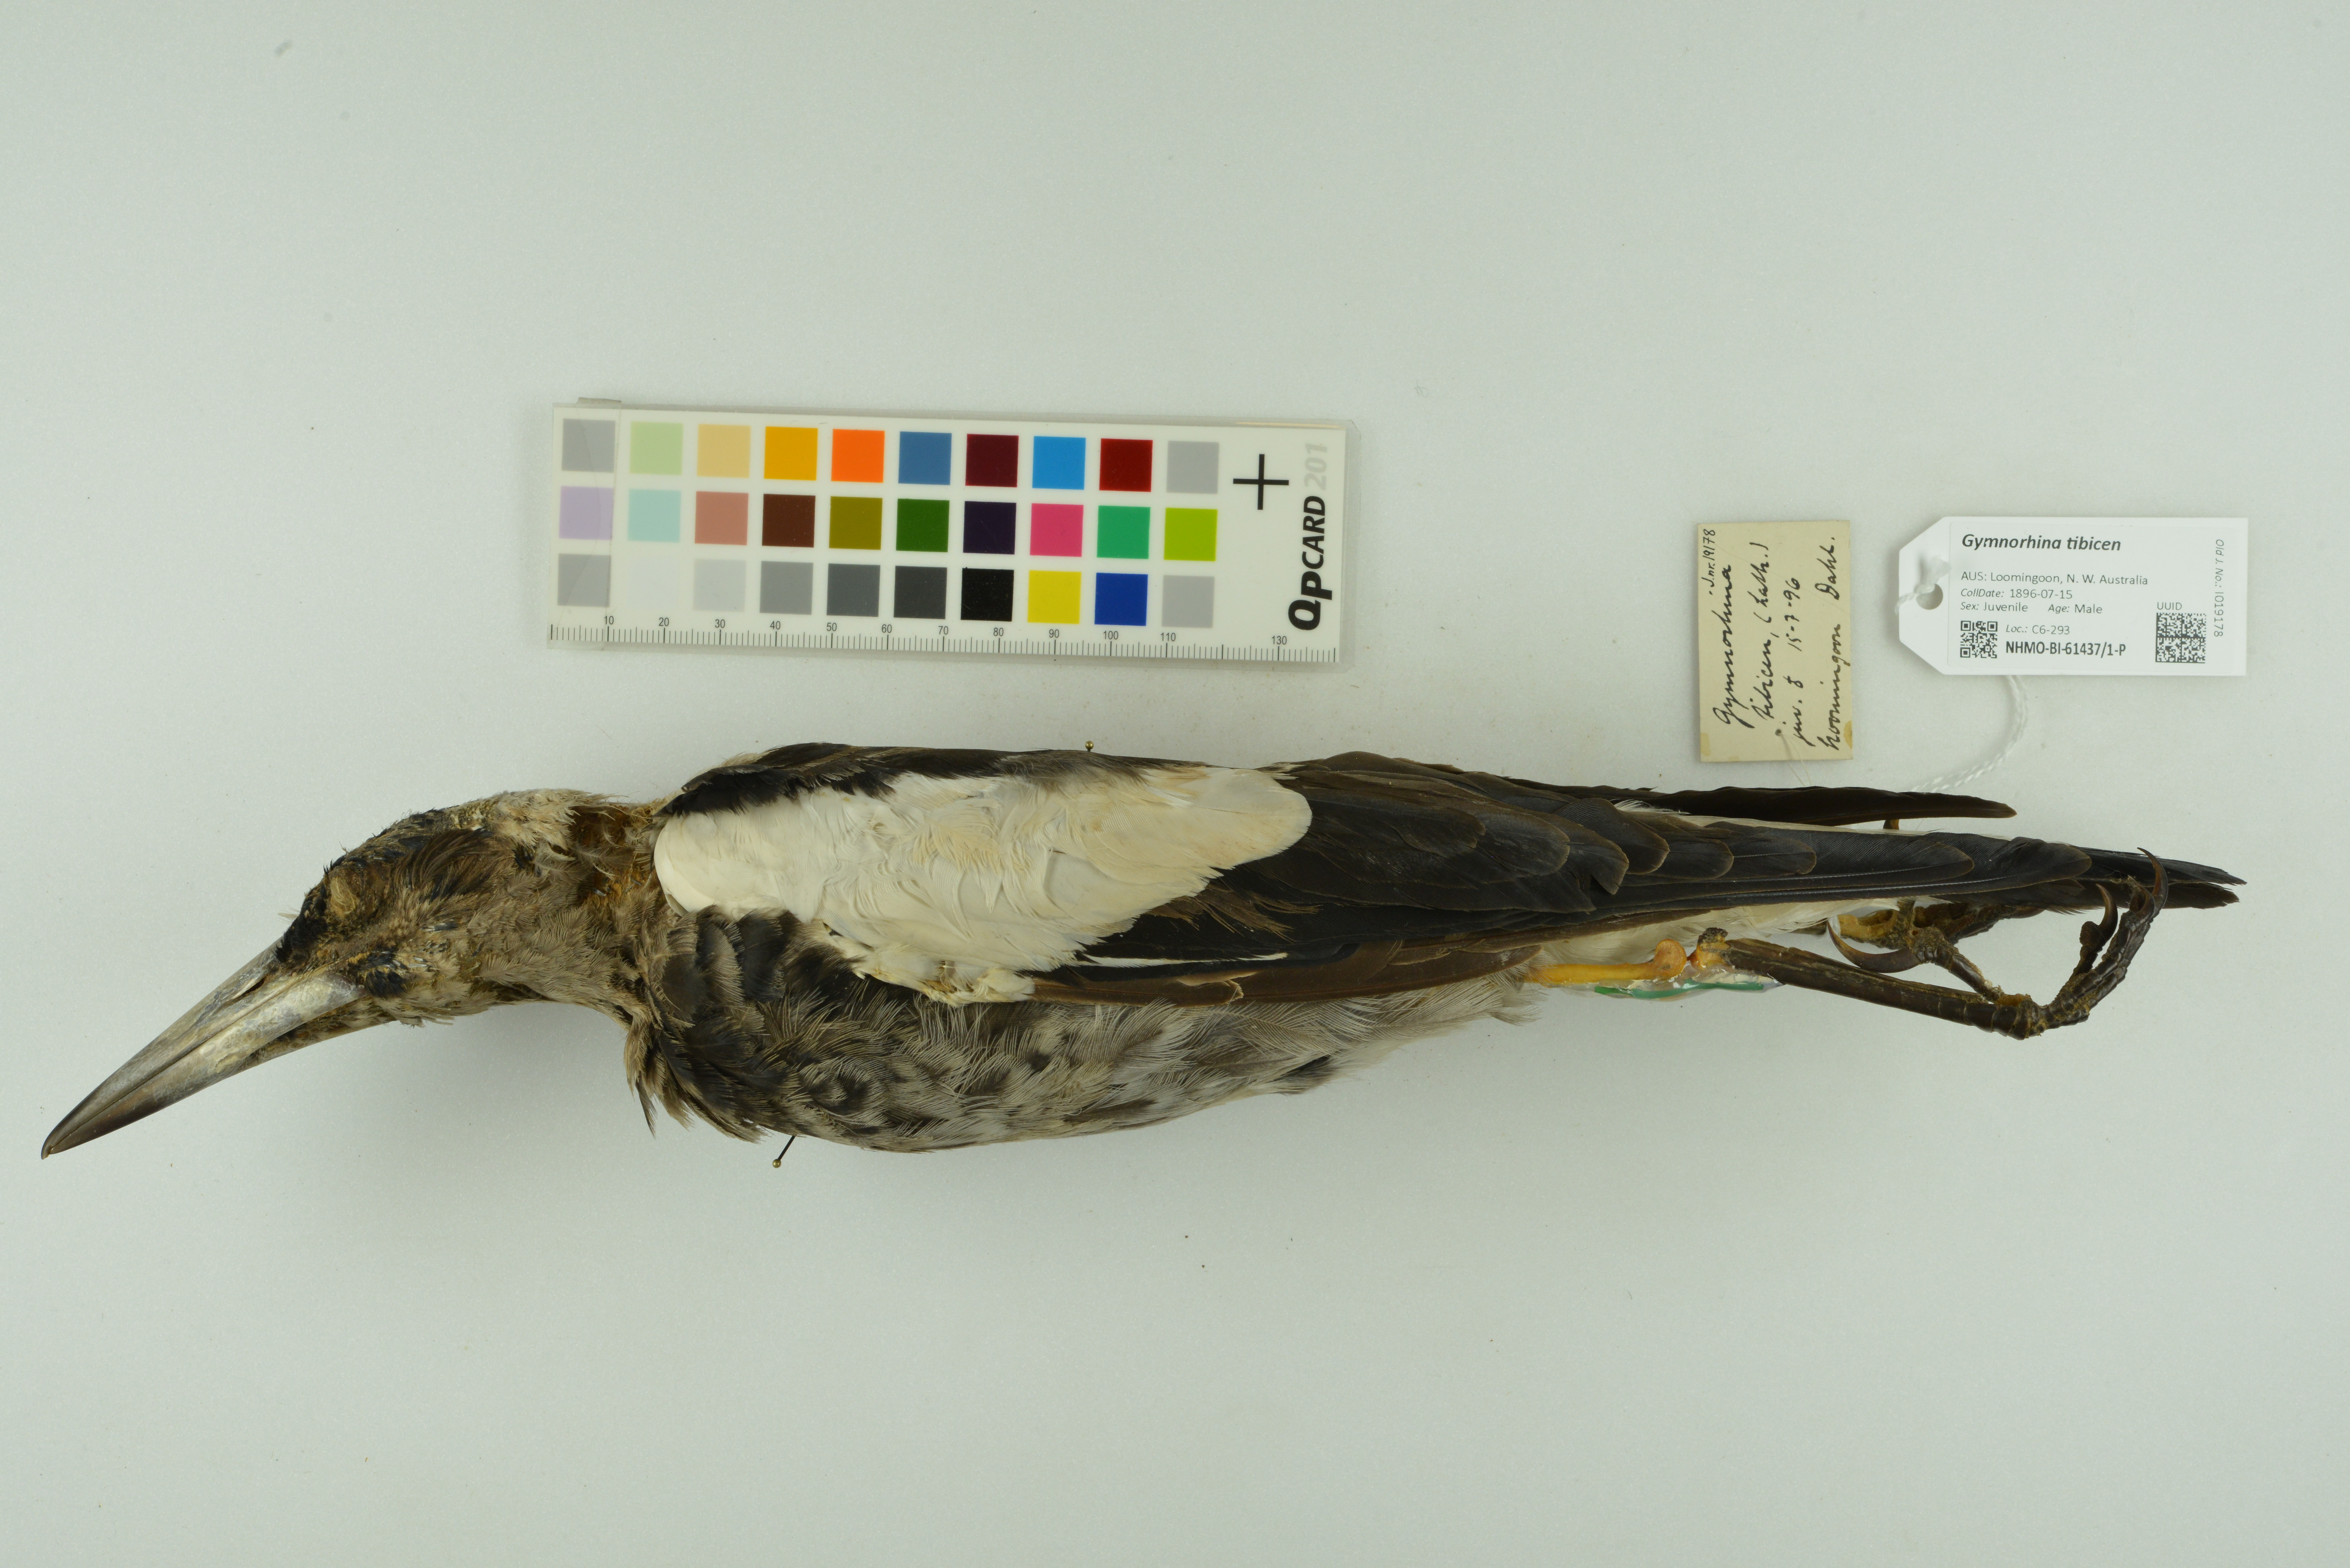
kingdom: Animalia
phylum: Chordata
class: Aves
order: Passeriformes
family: Cracticidae
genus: Gymnorhina
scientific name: Gymnorhina tibicen
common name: Australian magpie
